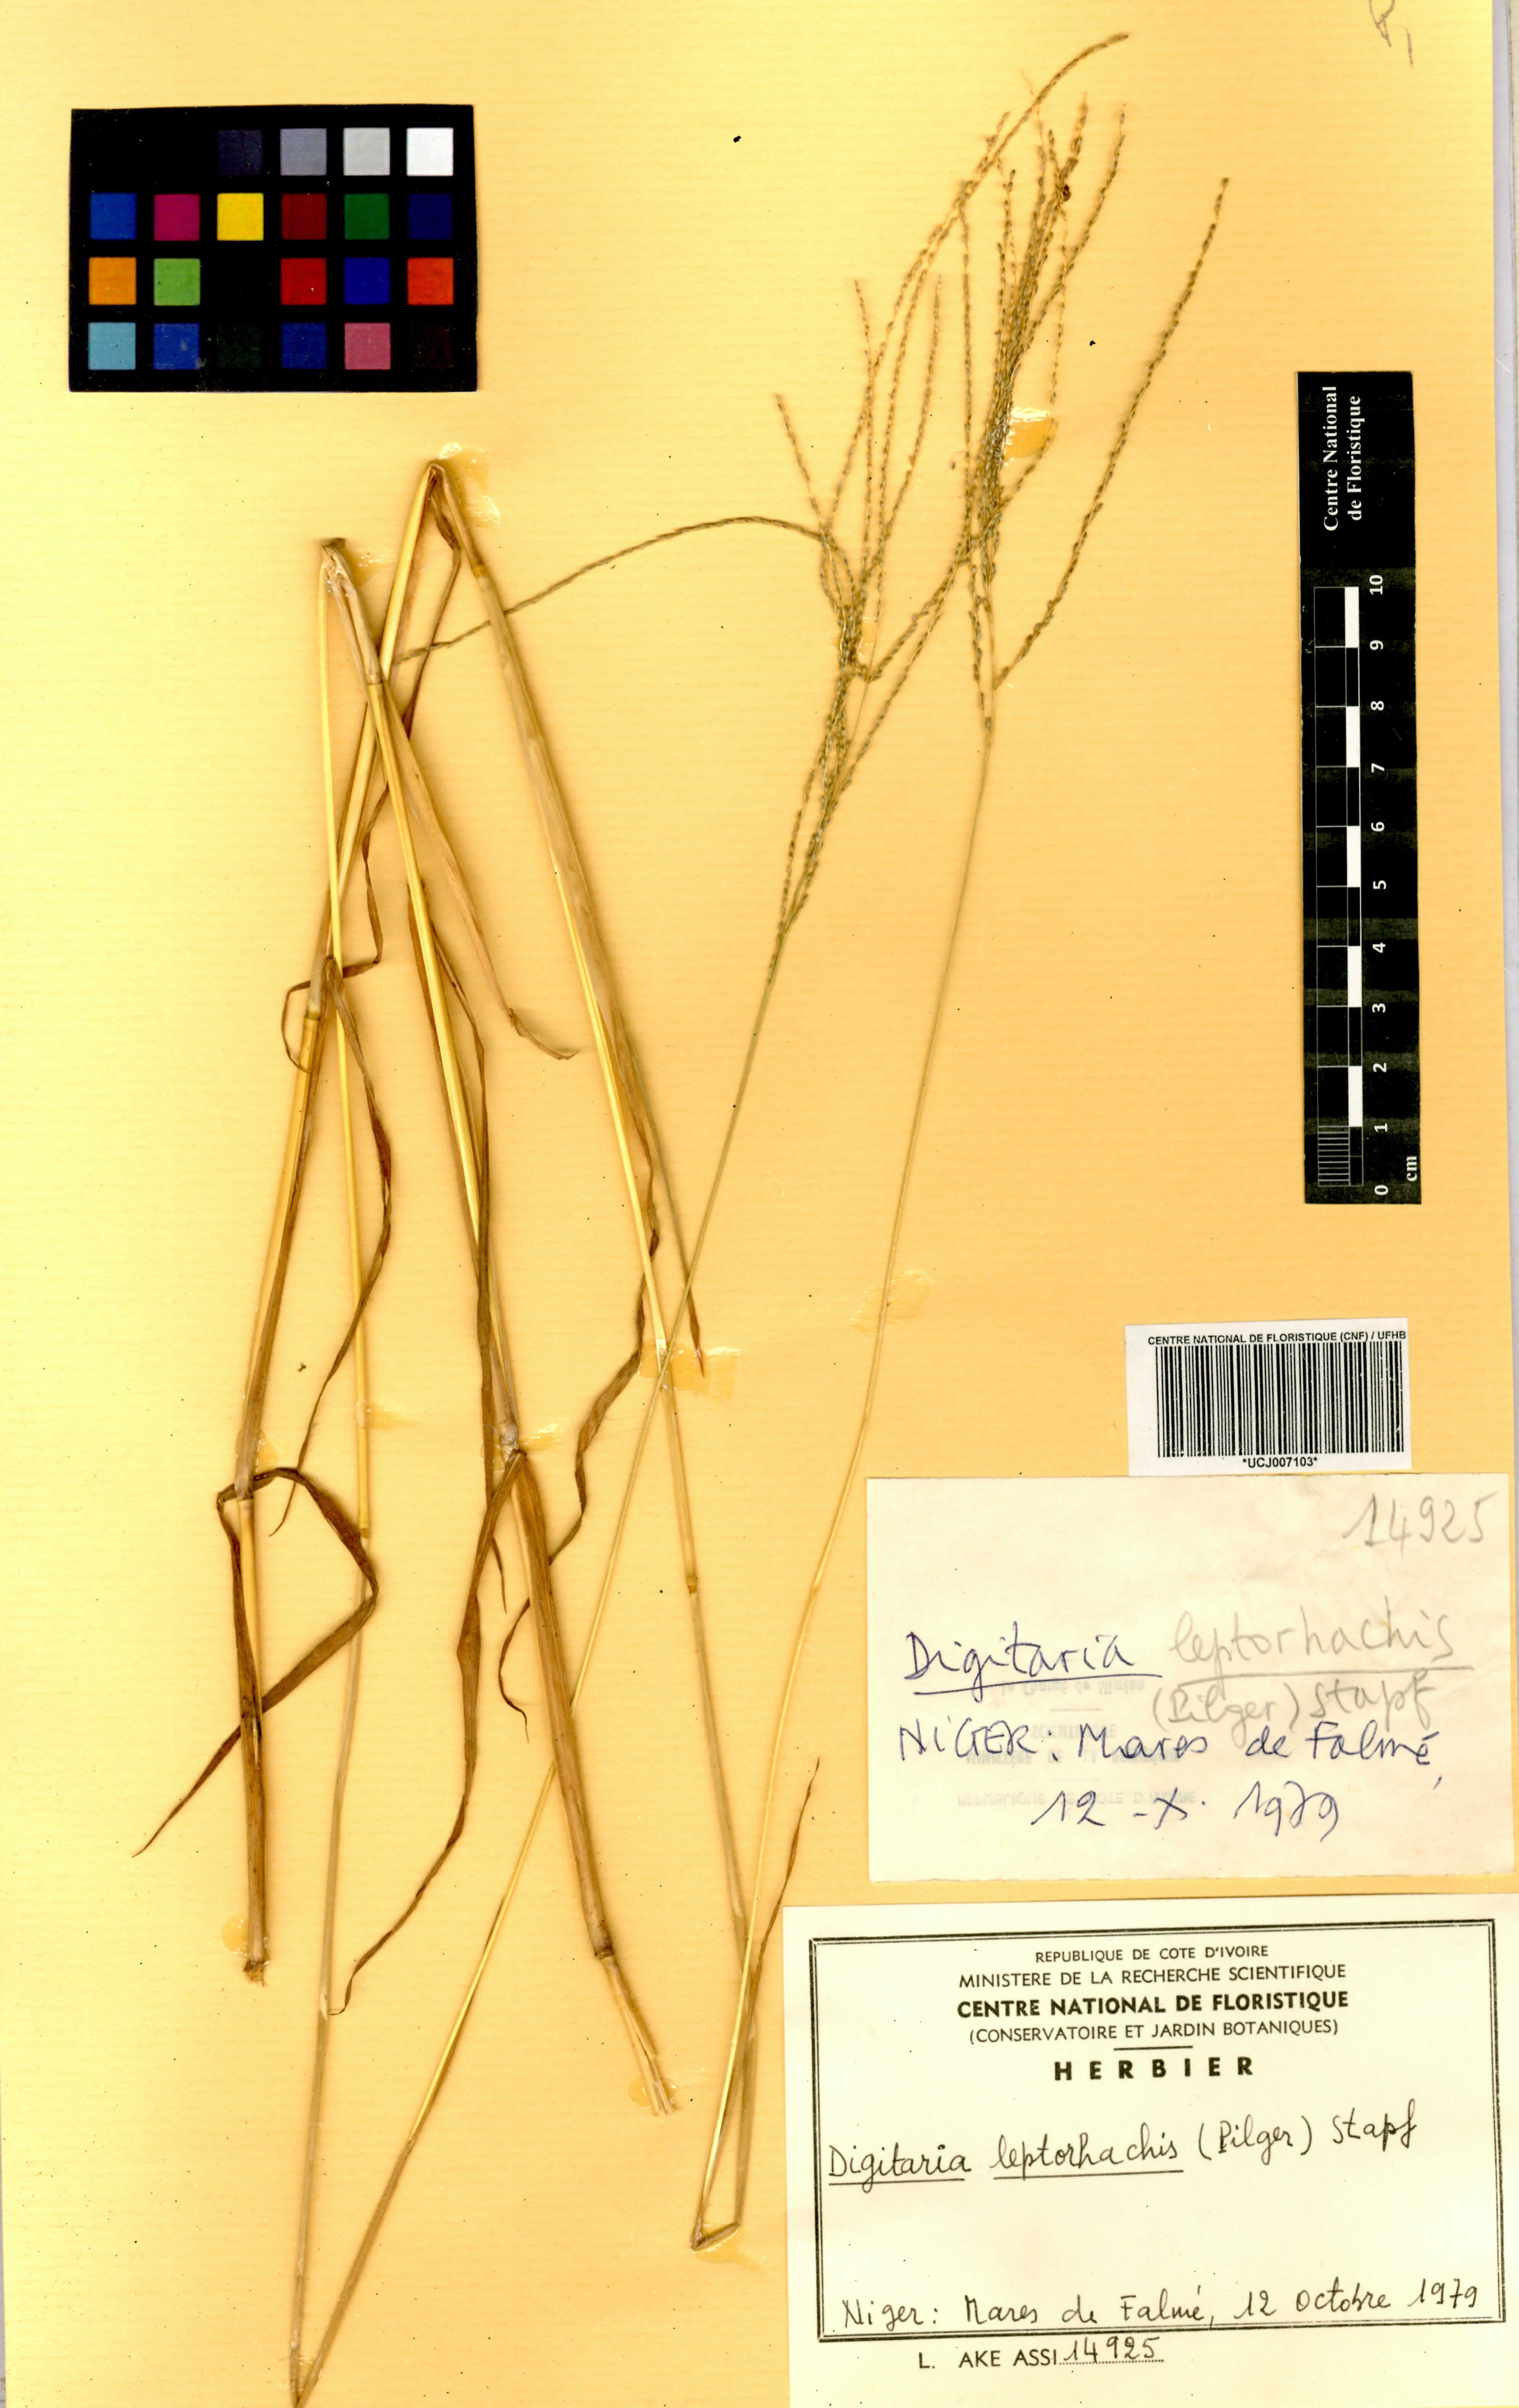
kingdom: Plantae
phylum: Tracheophyta
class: Liliopsida
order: Poales
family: Poaceae
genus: Digitaria
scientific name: Digitaria leptorhachis
